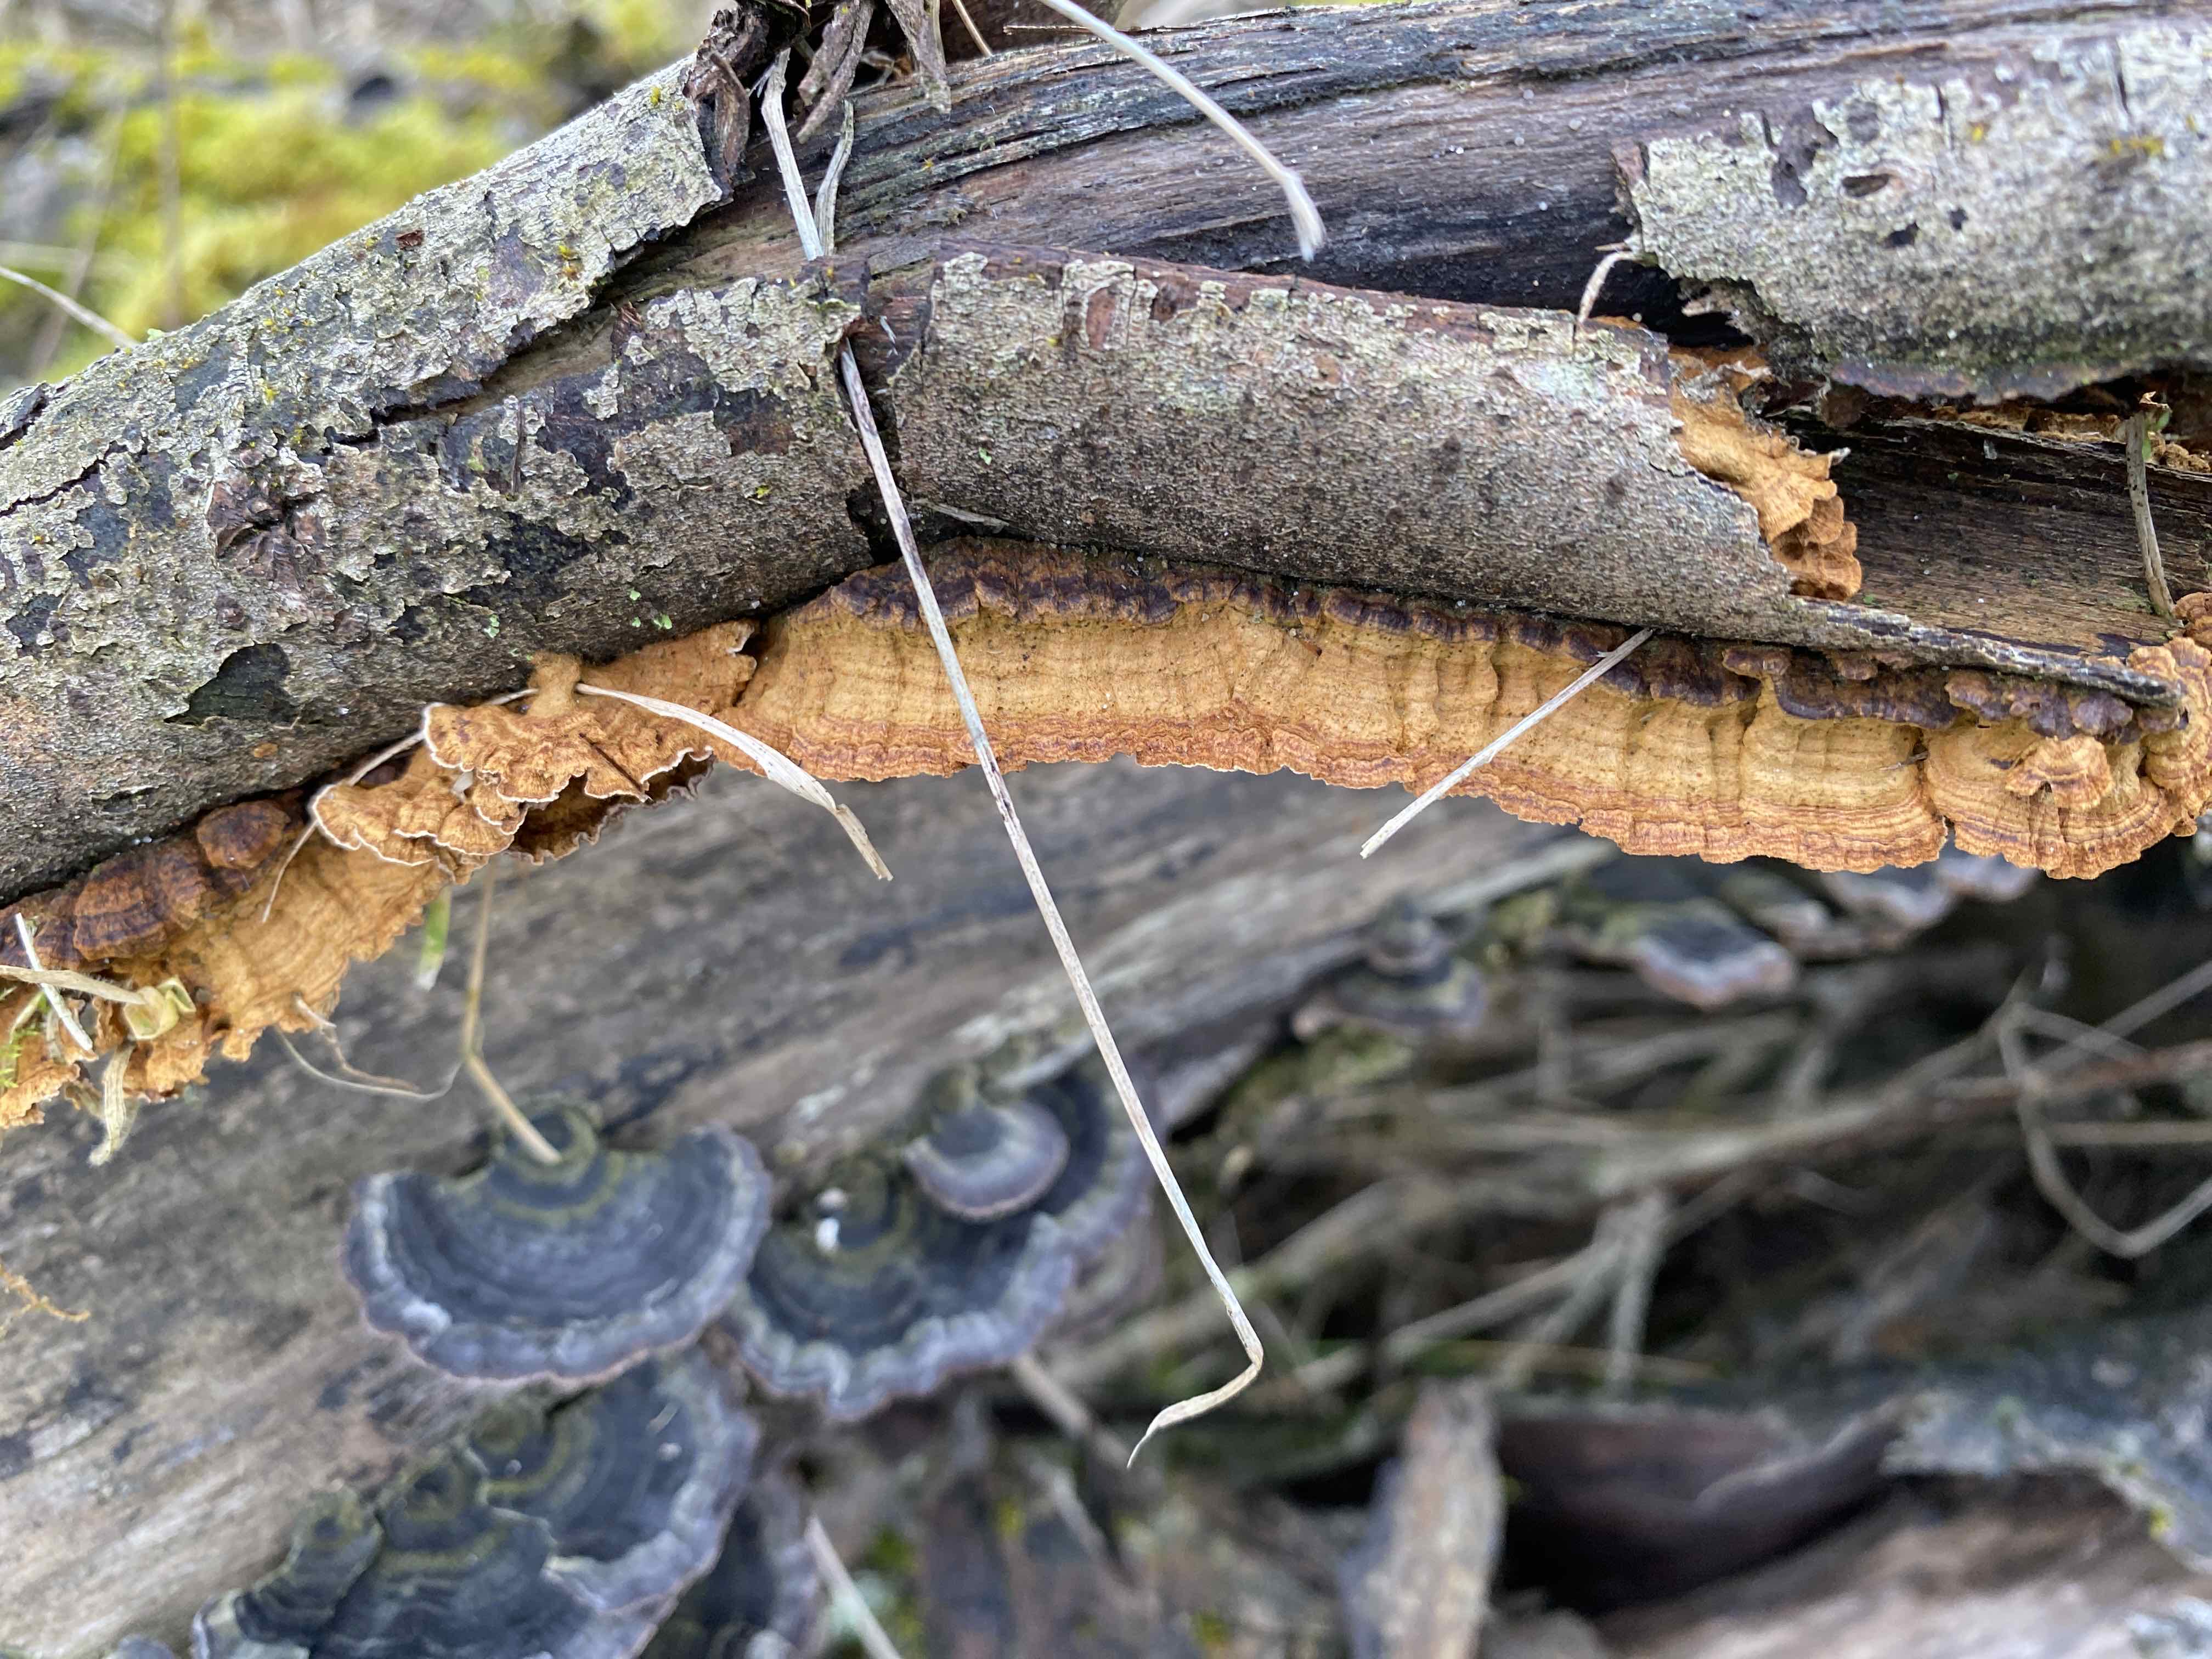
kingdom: Fungi
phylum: Basidiomycota
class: Agaricomycetes
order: Hymenochaetales
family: Hymenochaetaceae
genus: Hydnoporia
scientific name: Hydnoporia tabacina
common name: tobaksbrun ruslædersvamp
